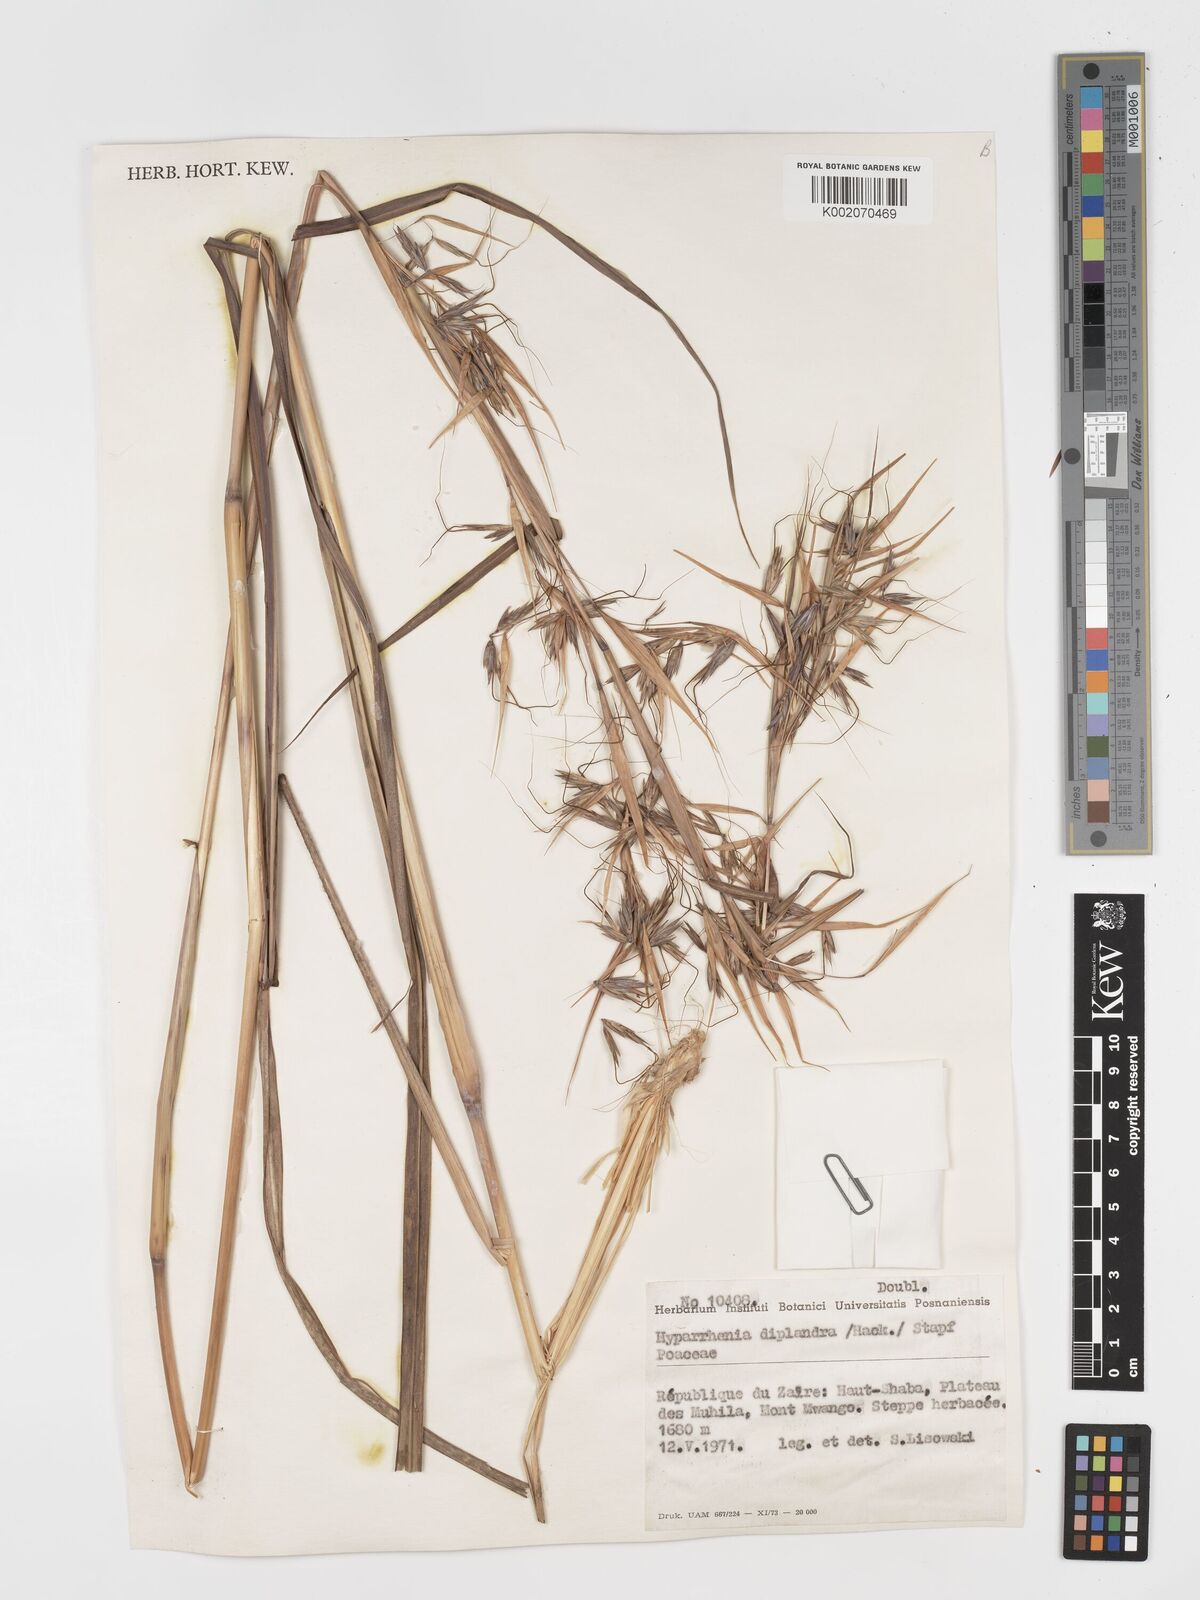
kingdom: Plantae
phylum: Tracheophyta
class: Liliopsida
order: Poales
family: Poaceae
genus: Hyparrhenia
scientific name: Hyparrhenia diplandra
